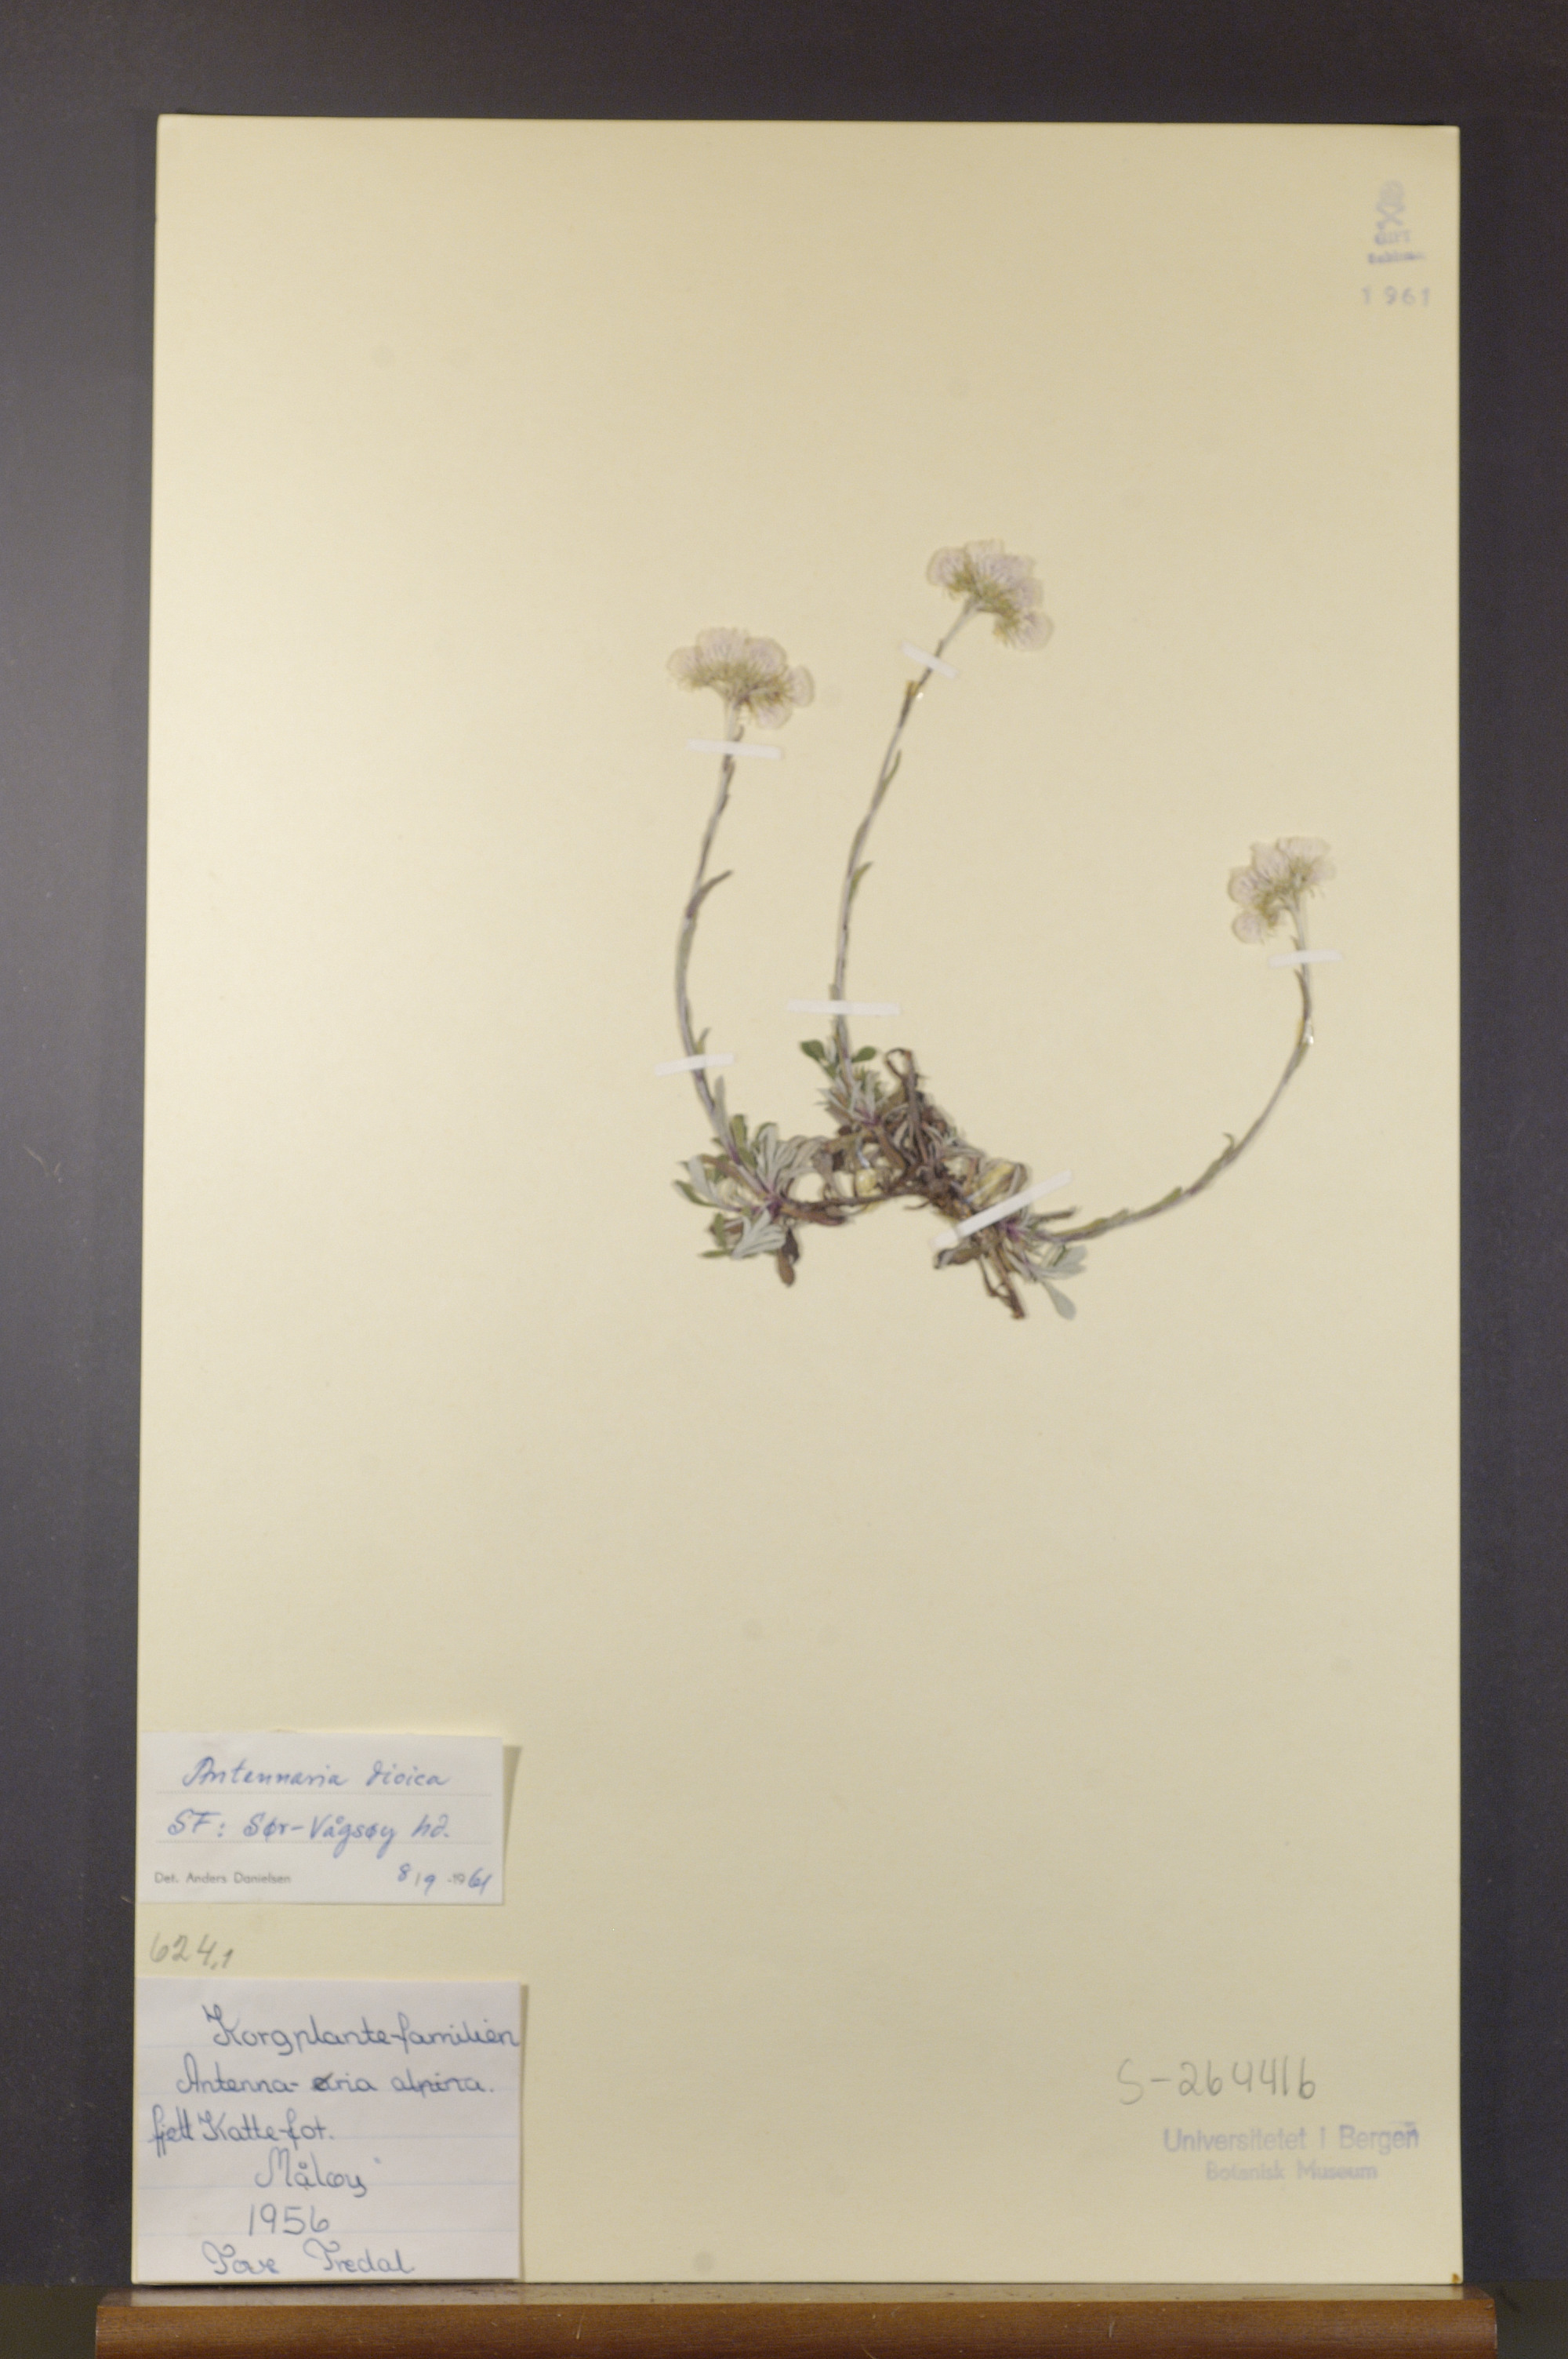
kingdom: Plantae
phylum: Tracheophyta
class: Magnoliopsida
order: Asterales
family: Asteraceae
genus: Antennaria
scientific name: Antennaria dioica
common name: Mountain everlasting
